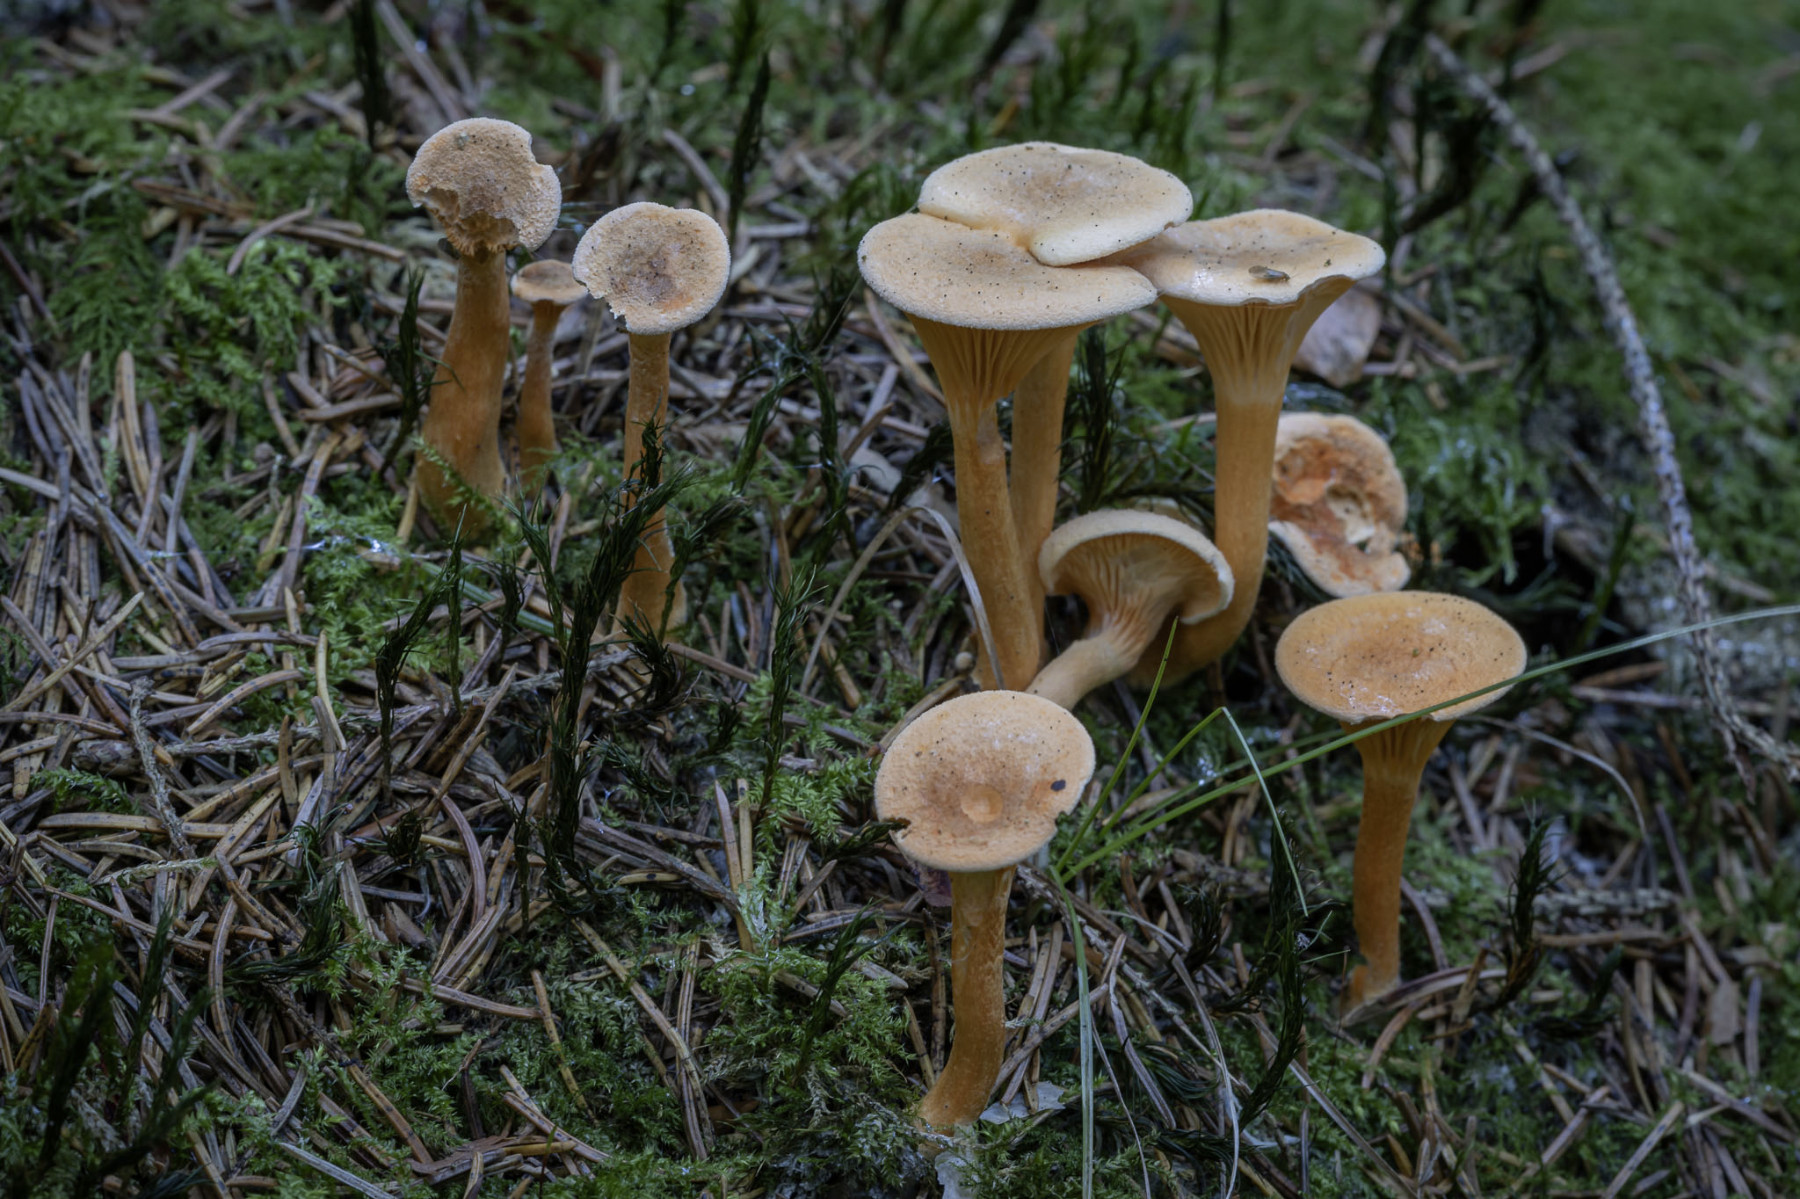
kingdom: Fungi
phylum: Basidiomycota
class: Agaricomycetes
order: Boletales
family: Hygrophoropsidaceae
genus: Hygrophoropsis
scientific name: Hygrophoropsis aurantiaca
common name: almindelig orangekantarel
